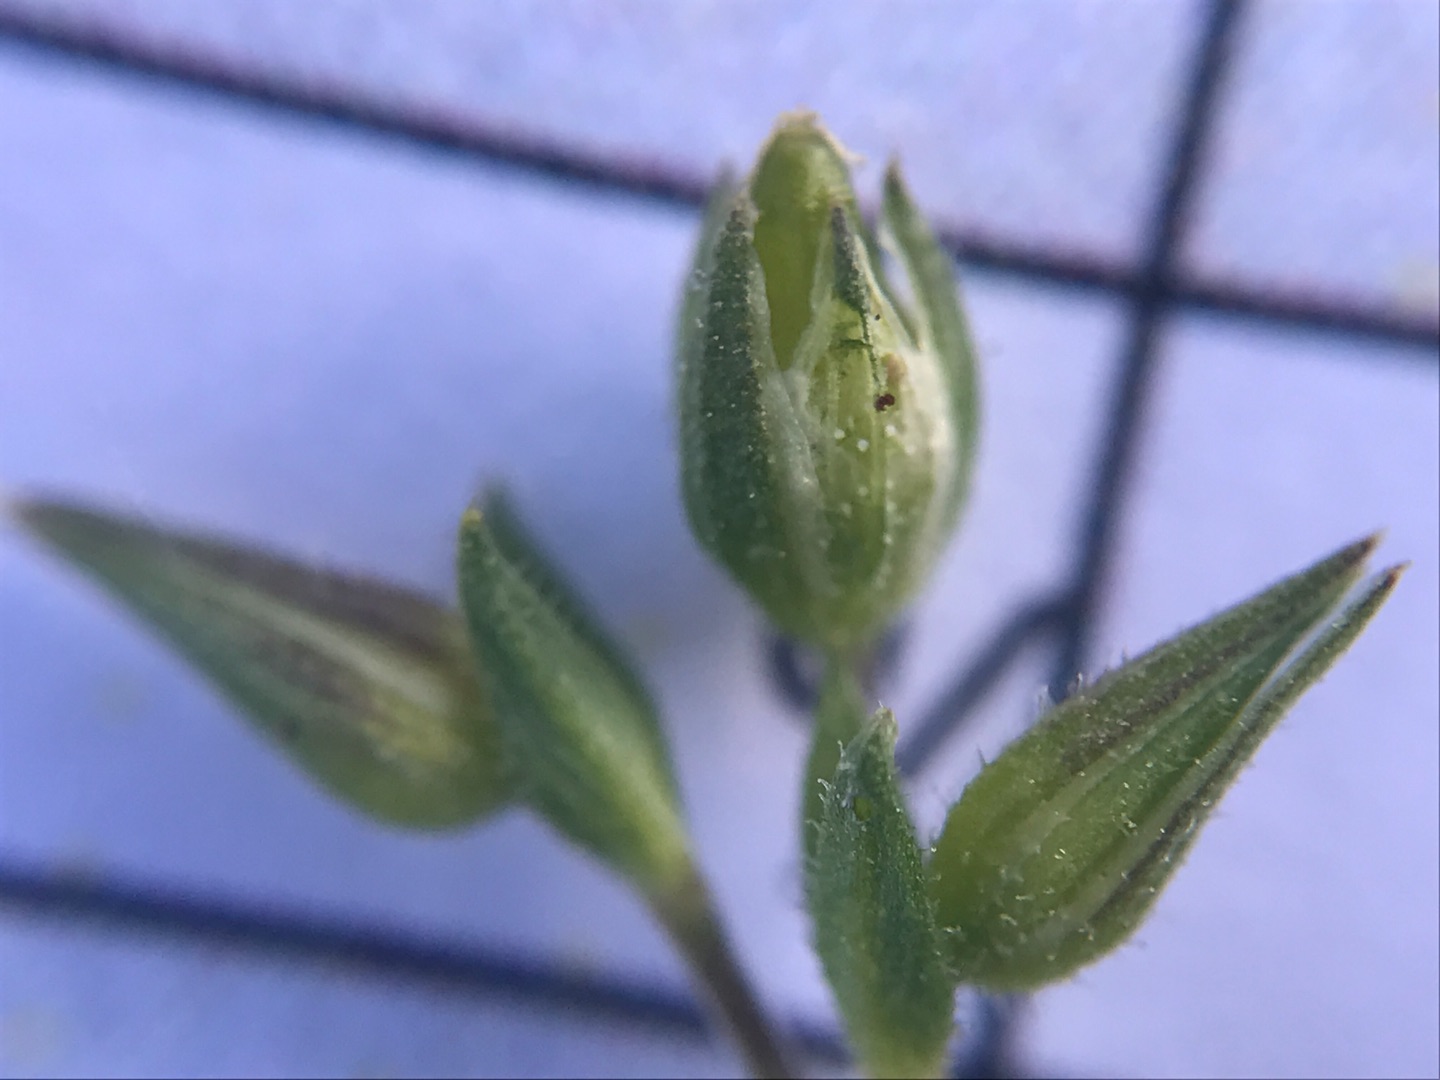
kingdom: Plantae
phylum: Tracheophyta
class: Magnoliopsida
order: Caryophyllales
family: Caryophyllaceae
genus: Arenaria
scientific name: Arenaria serpyllifolia
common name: Almindelig markarve
